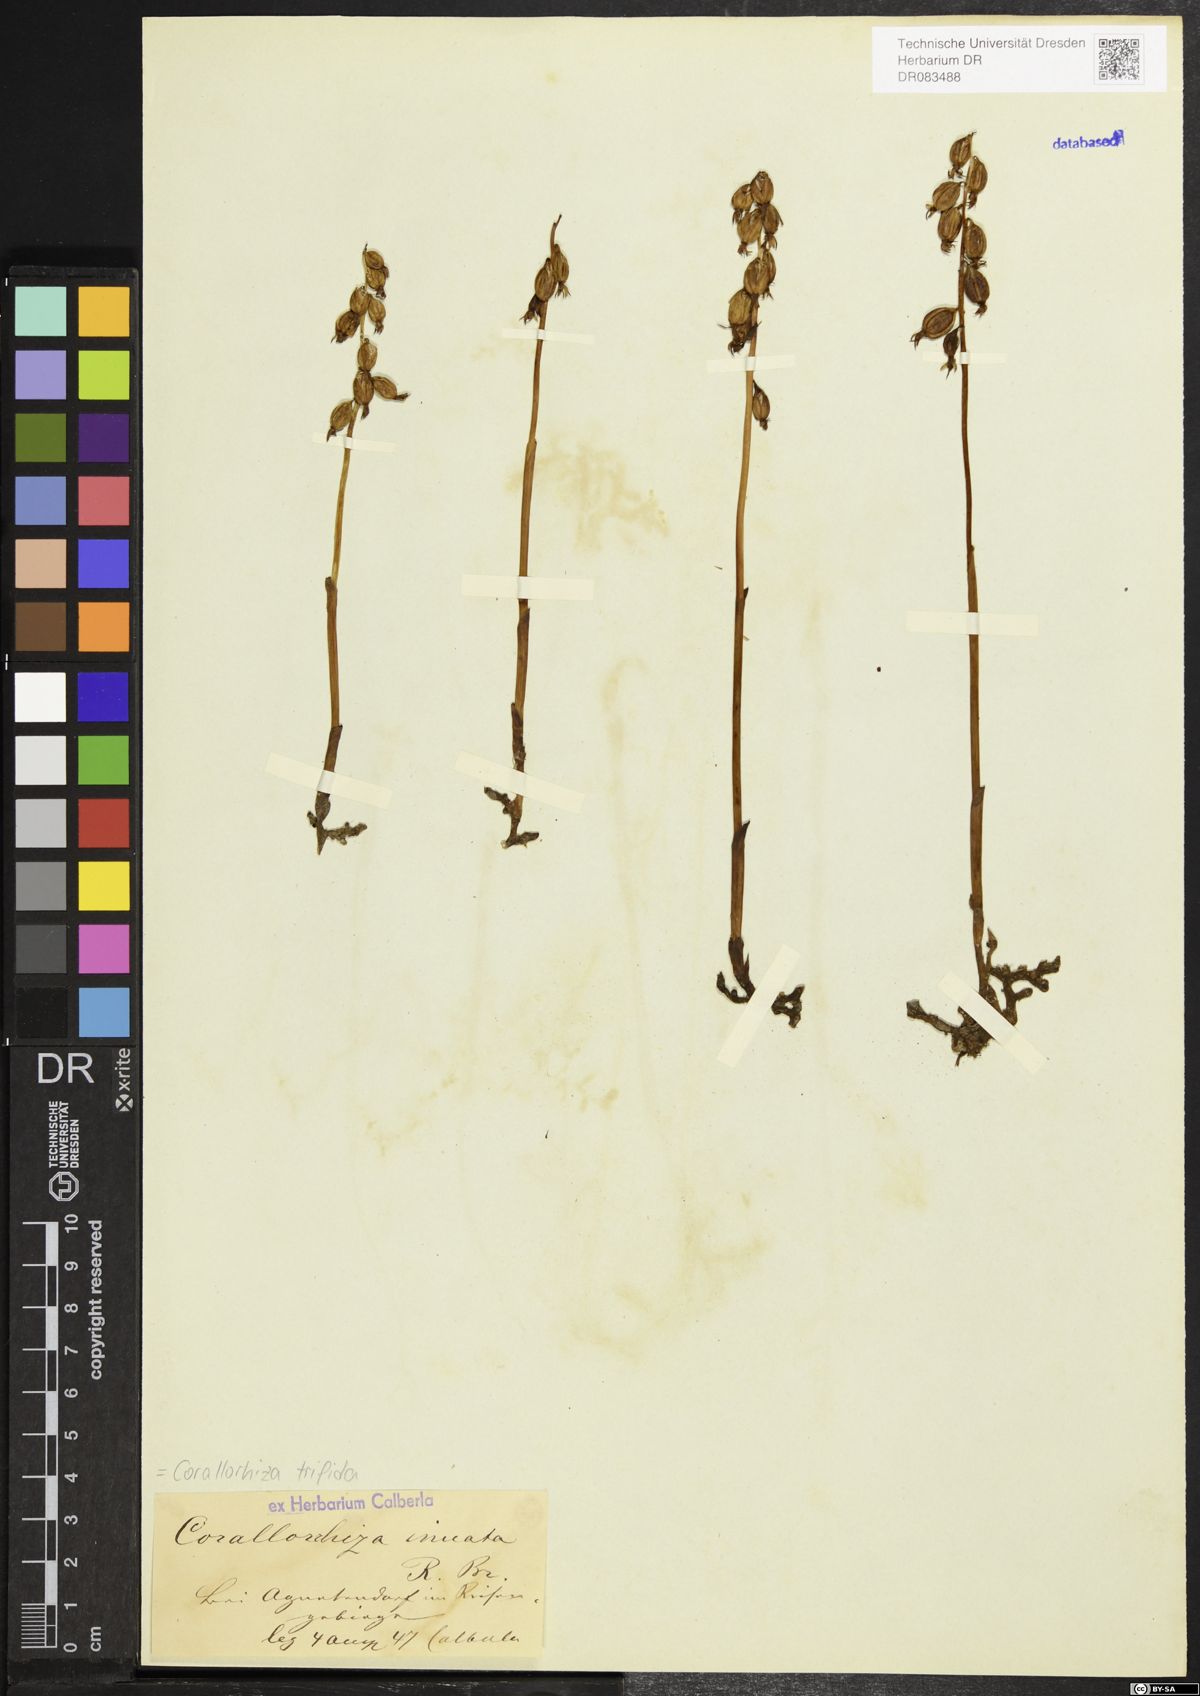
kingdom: Plantae
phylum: Tracheophyta
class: Liliopsida
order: Asparagales
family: Orchidaceae
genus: Corallorhiza
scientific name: Corallorhiza trifida
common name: Yellow coralroot
